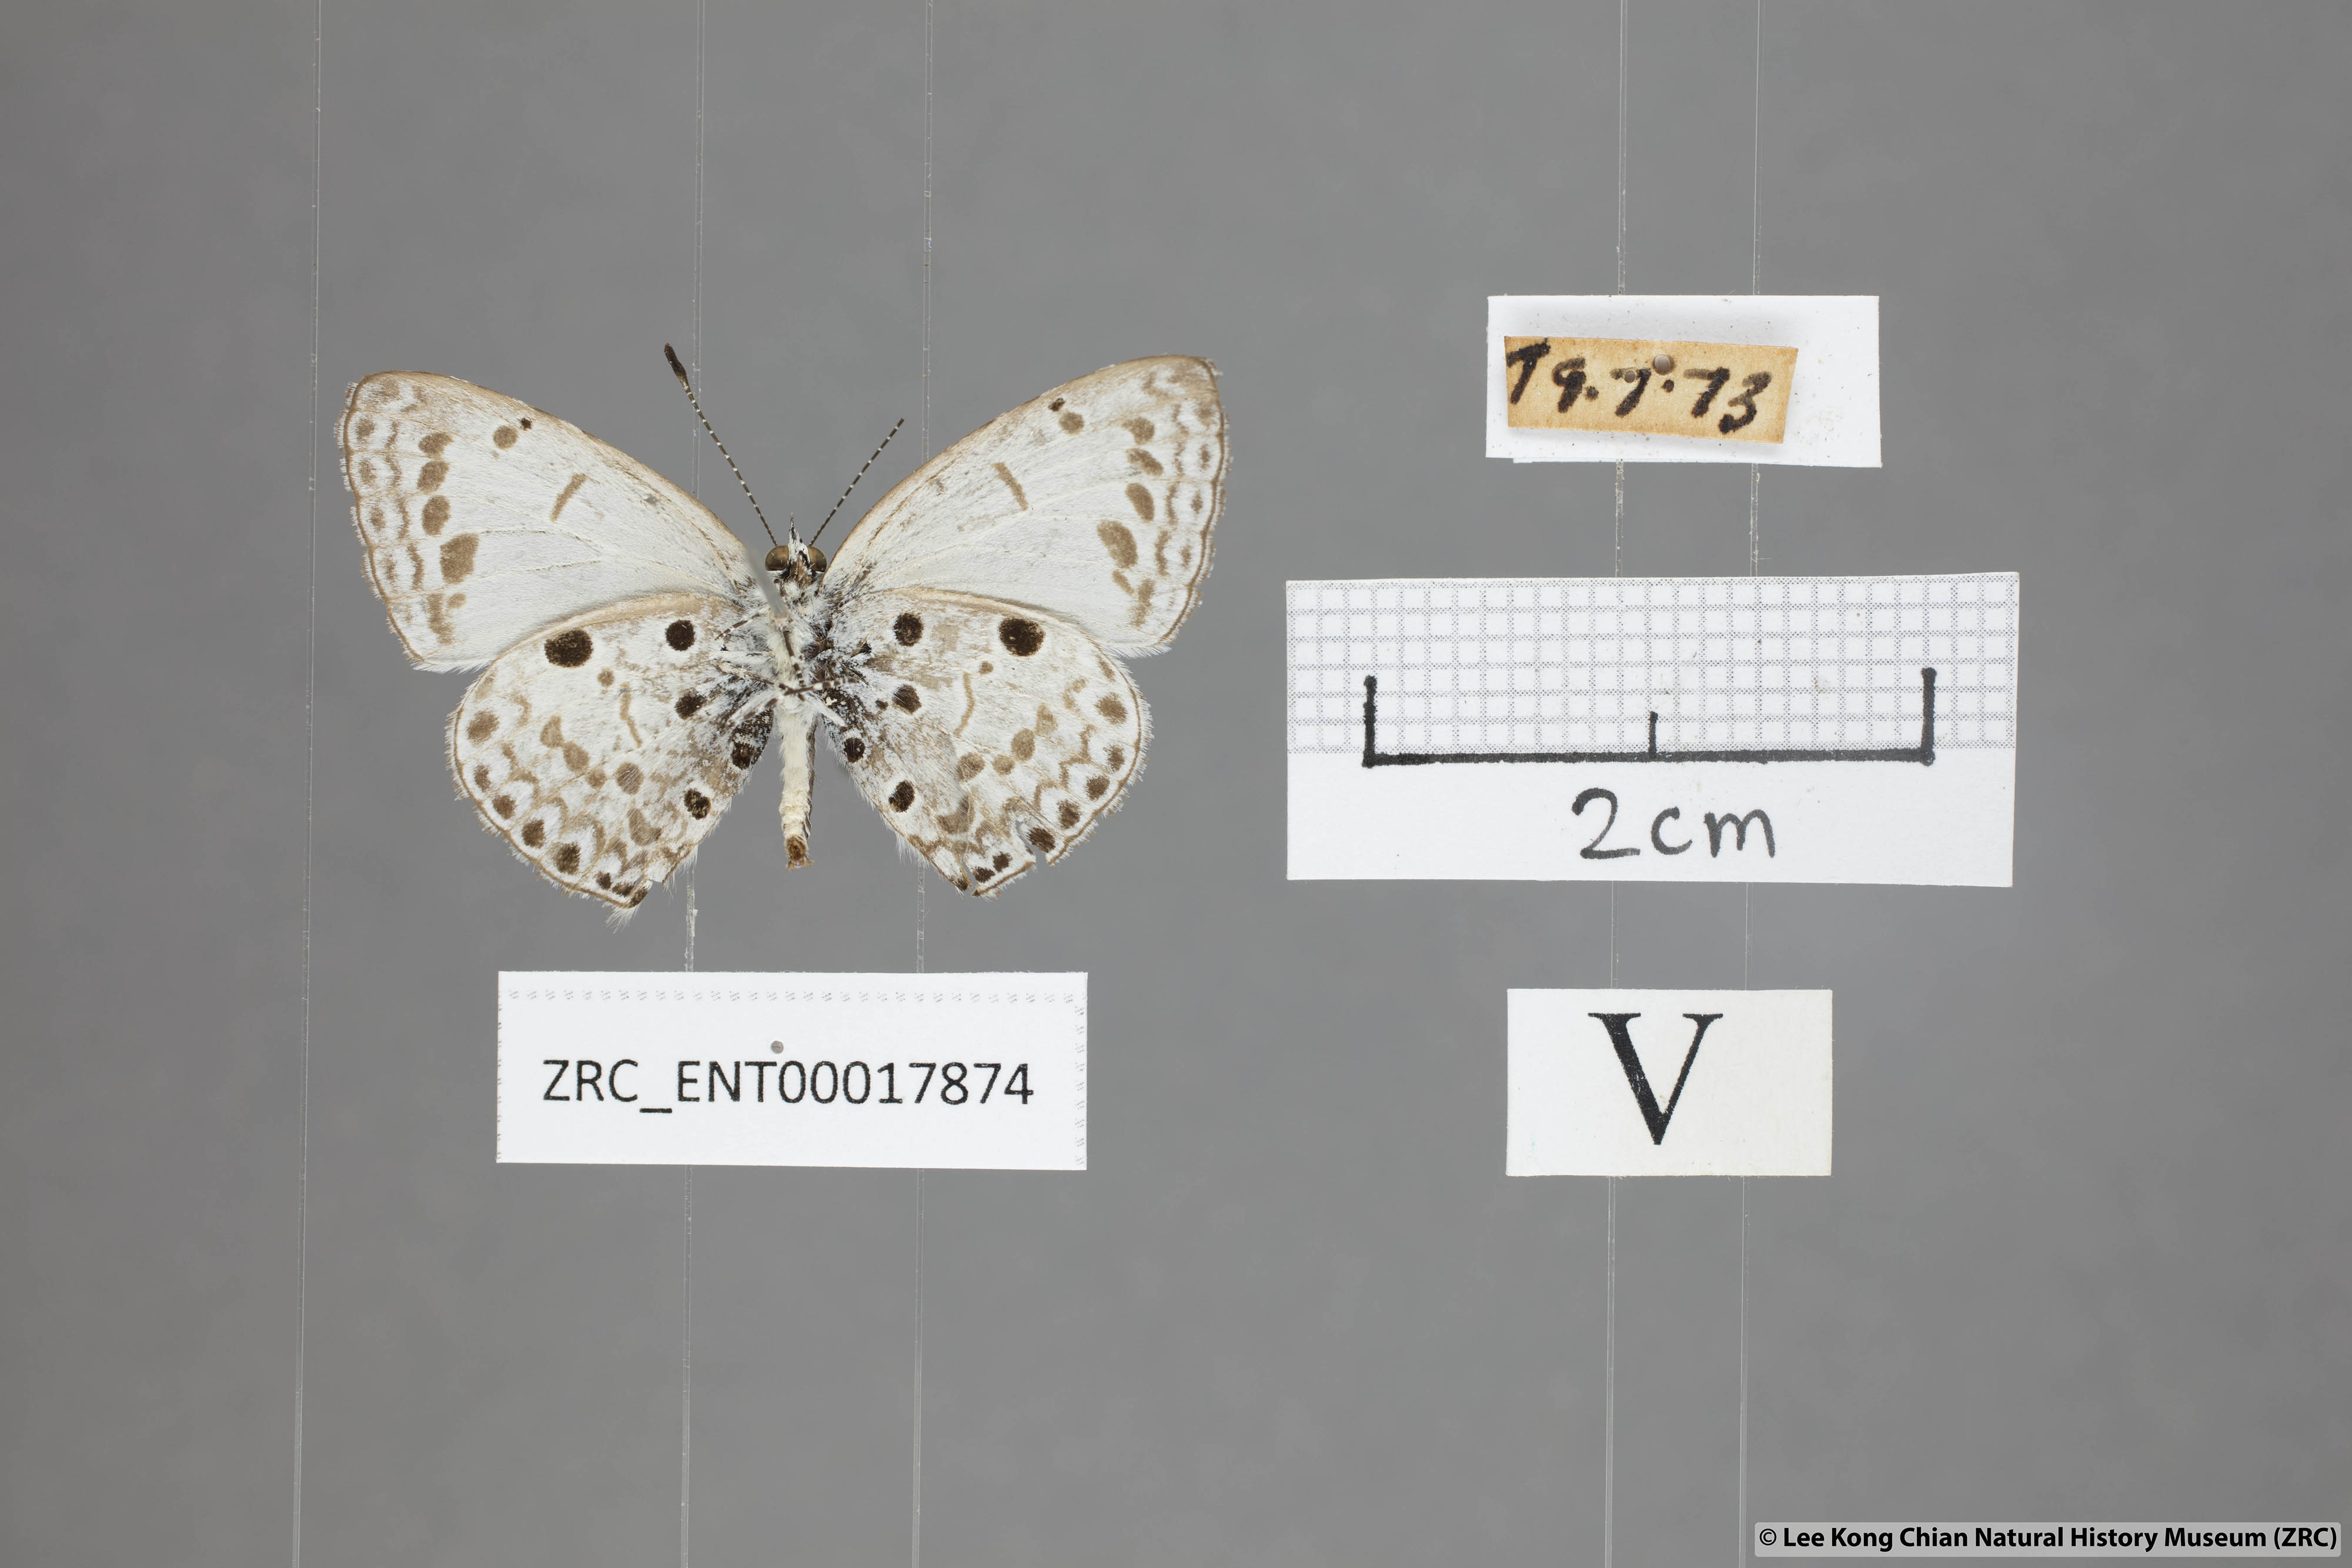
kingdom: Animalia
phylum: Arthropoda
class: Insecta
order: Lepidoptera
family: Lycaenidae
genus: Acytolepis
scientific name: Acytolepis puspa
